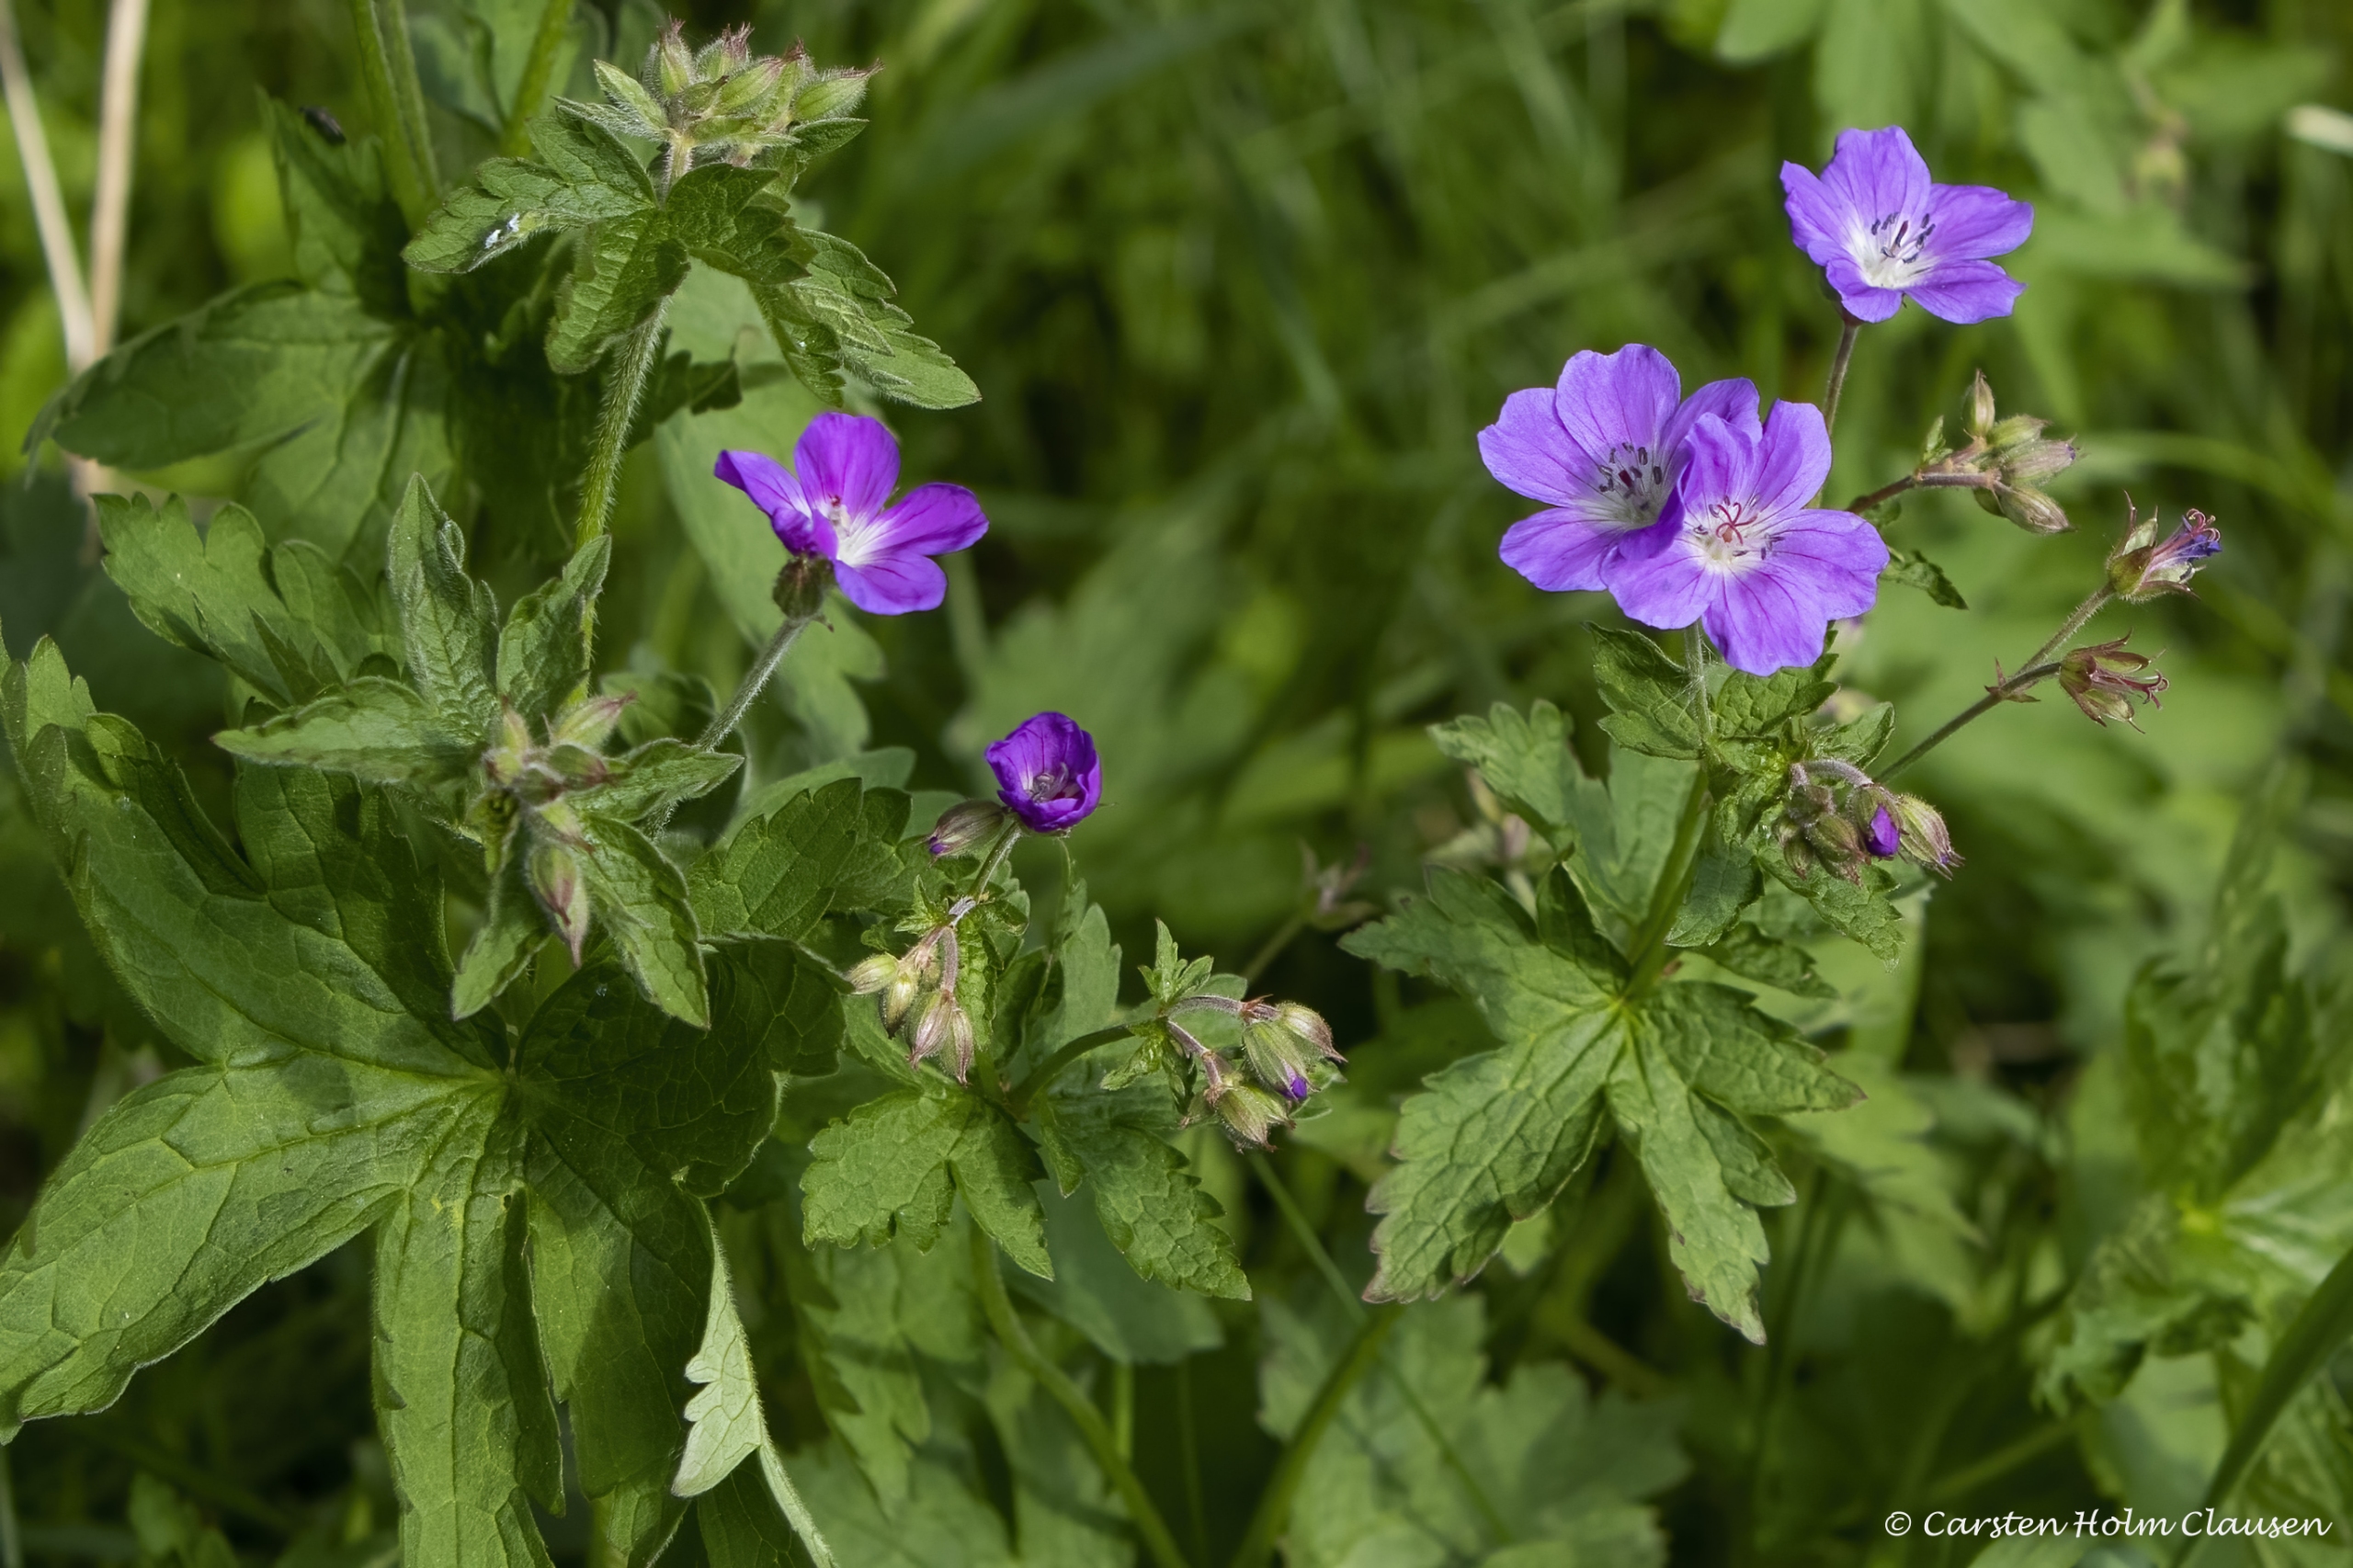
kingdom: Plantae
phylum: Tracheophyta
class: Magnoliopsida
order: Geraniales
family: Geraniaceae
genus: Geranium
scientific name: Geranium sylvaticum
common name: Skov-storkenæb
